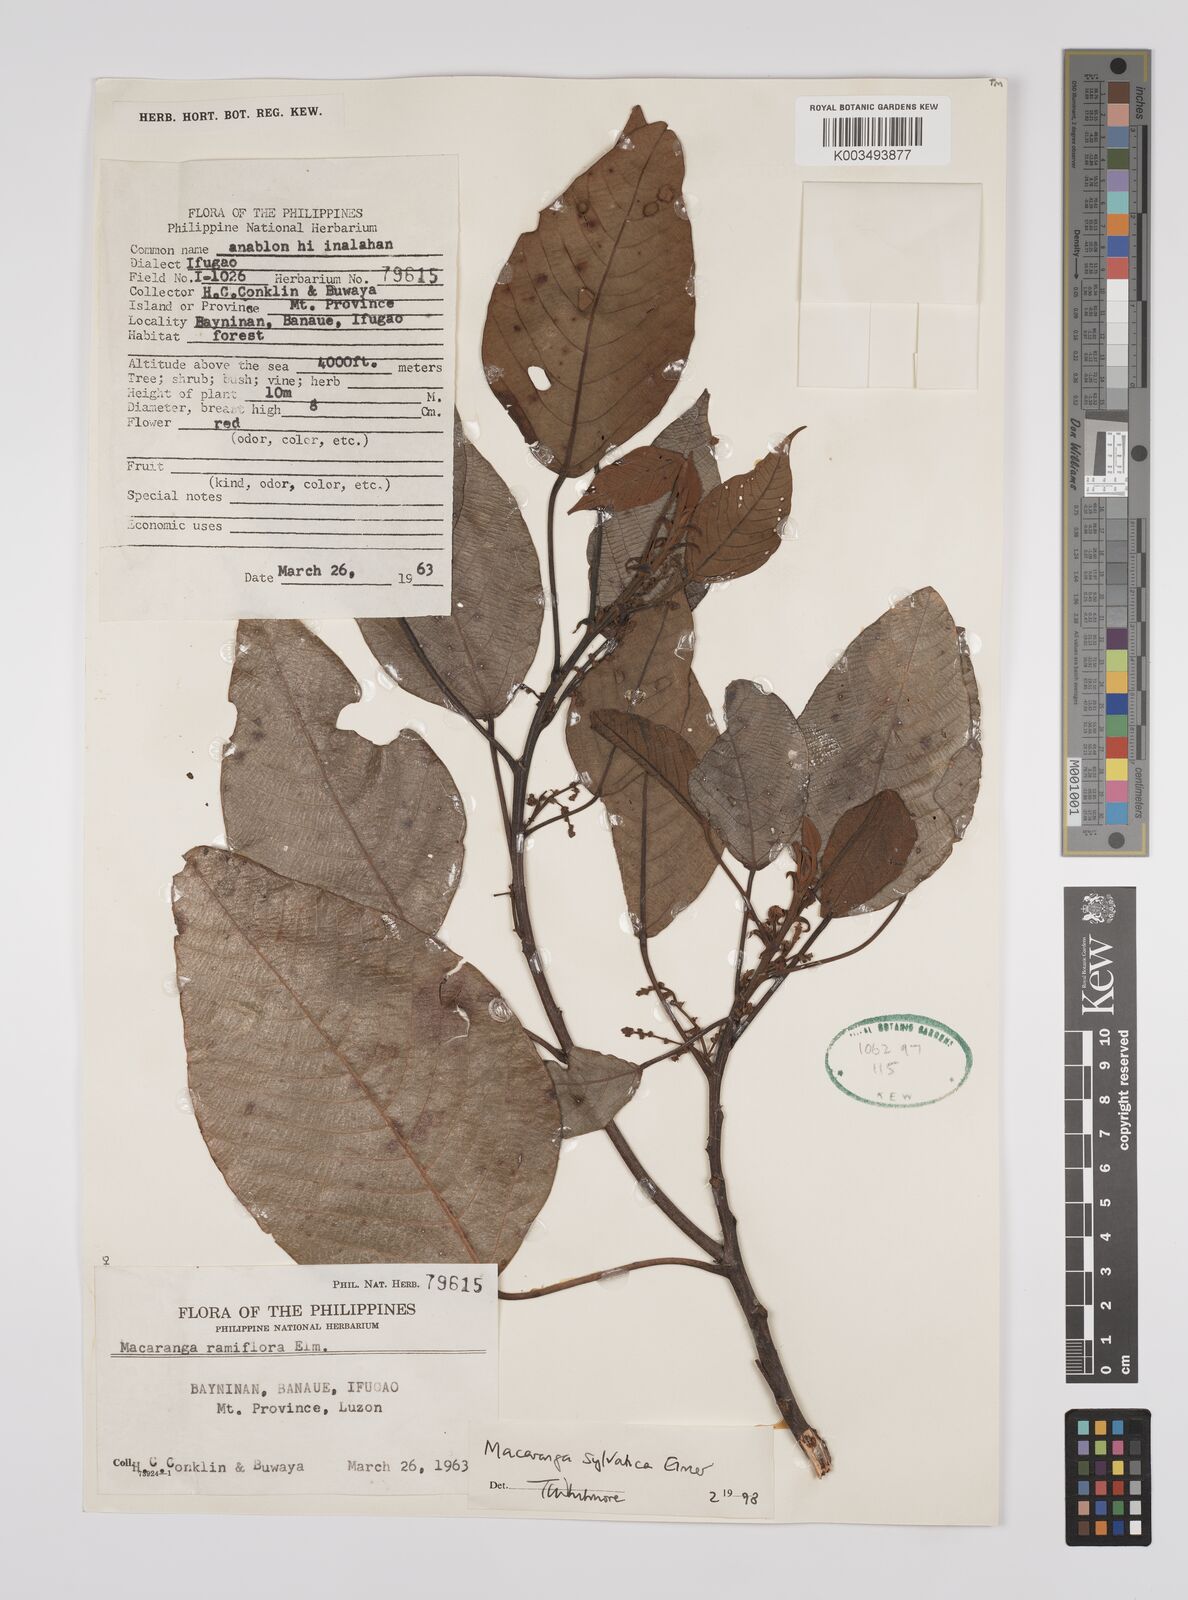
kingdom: Plantae
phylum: Tracheophyta
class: Magnoliopsida
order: Malpighiales
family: Euphorbiaceae
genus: Macaranga
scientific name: Macaranga sylvatica
